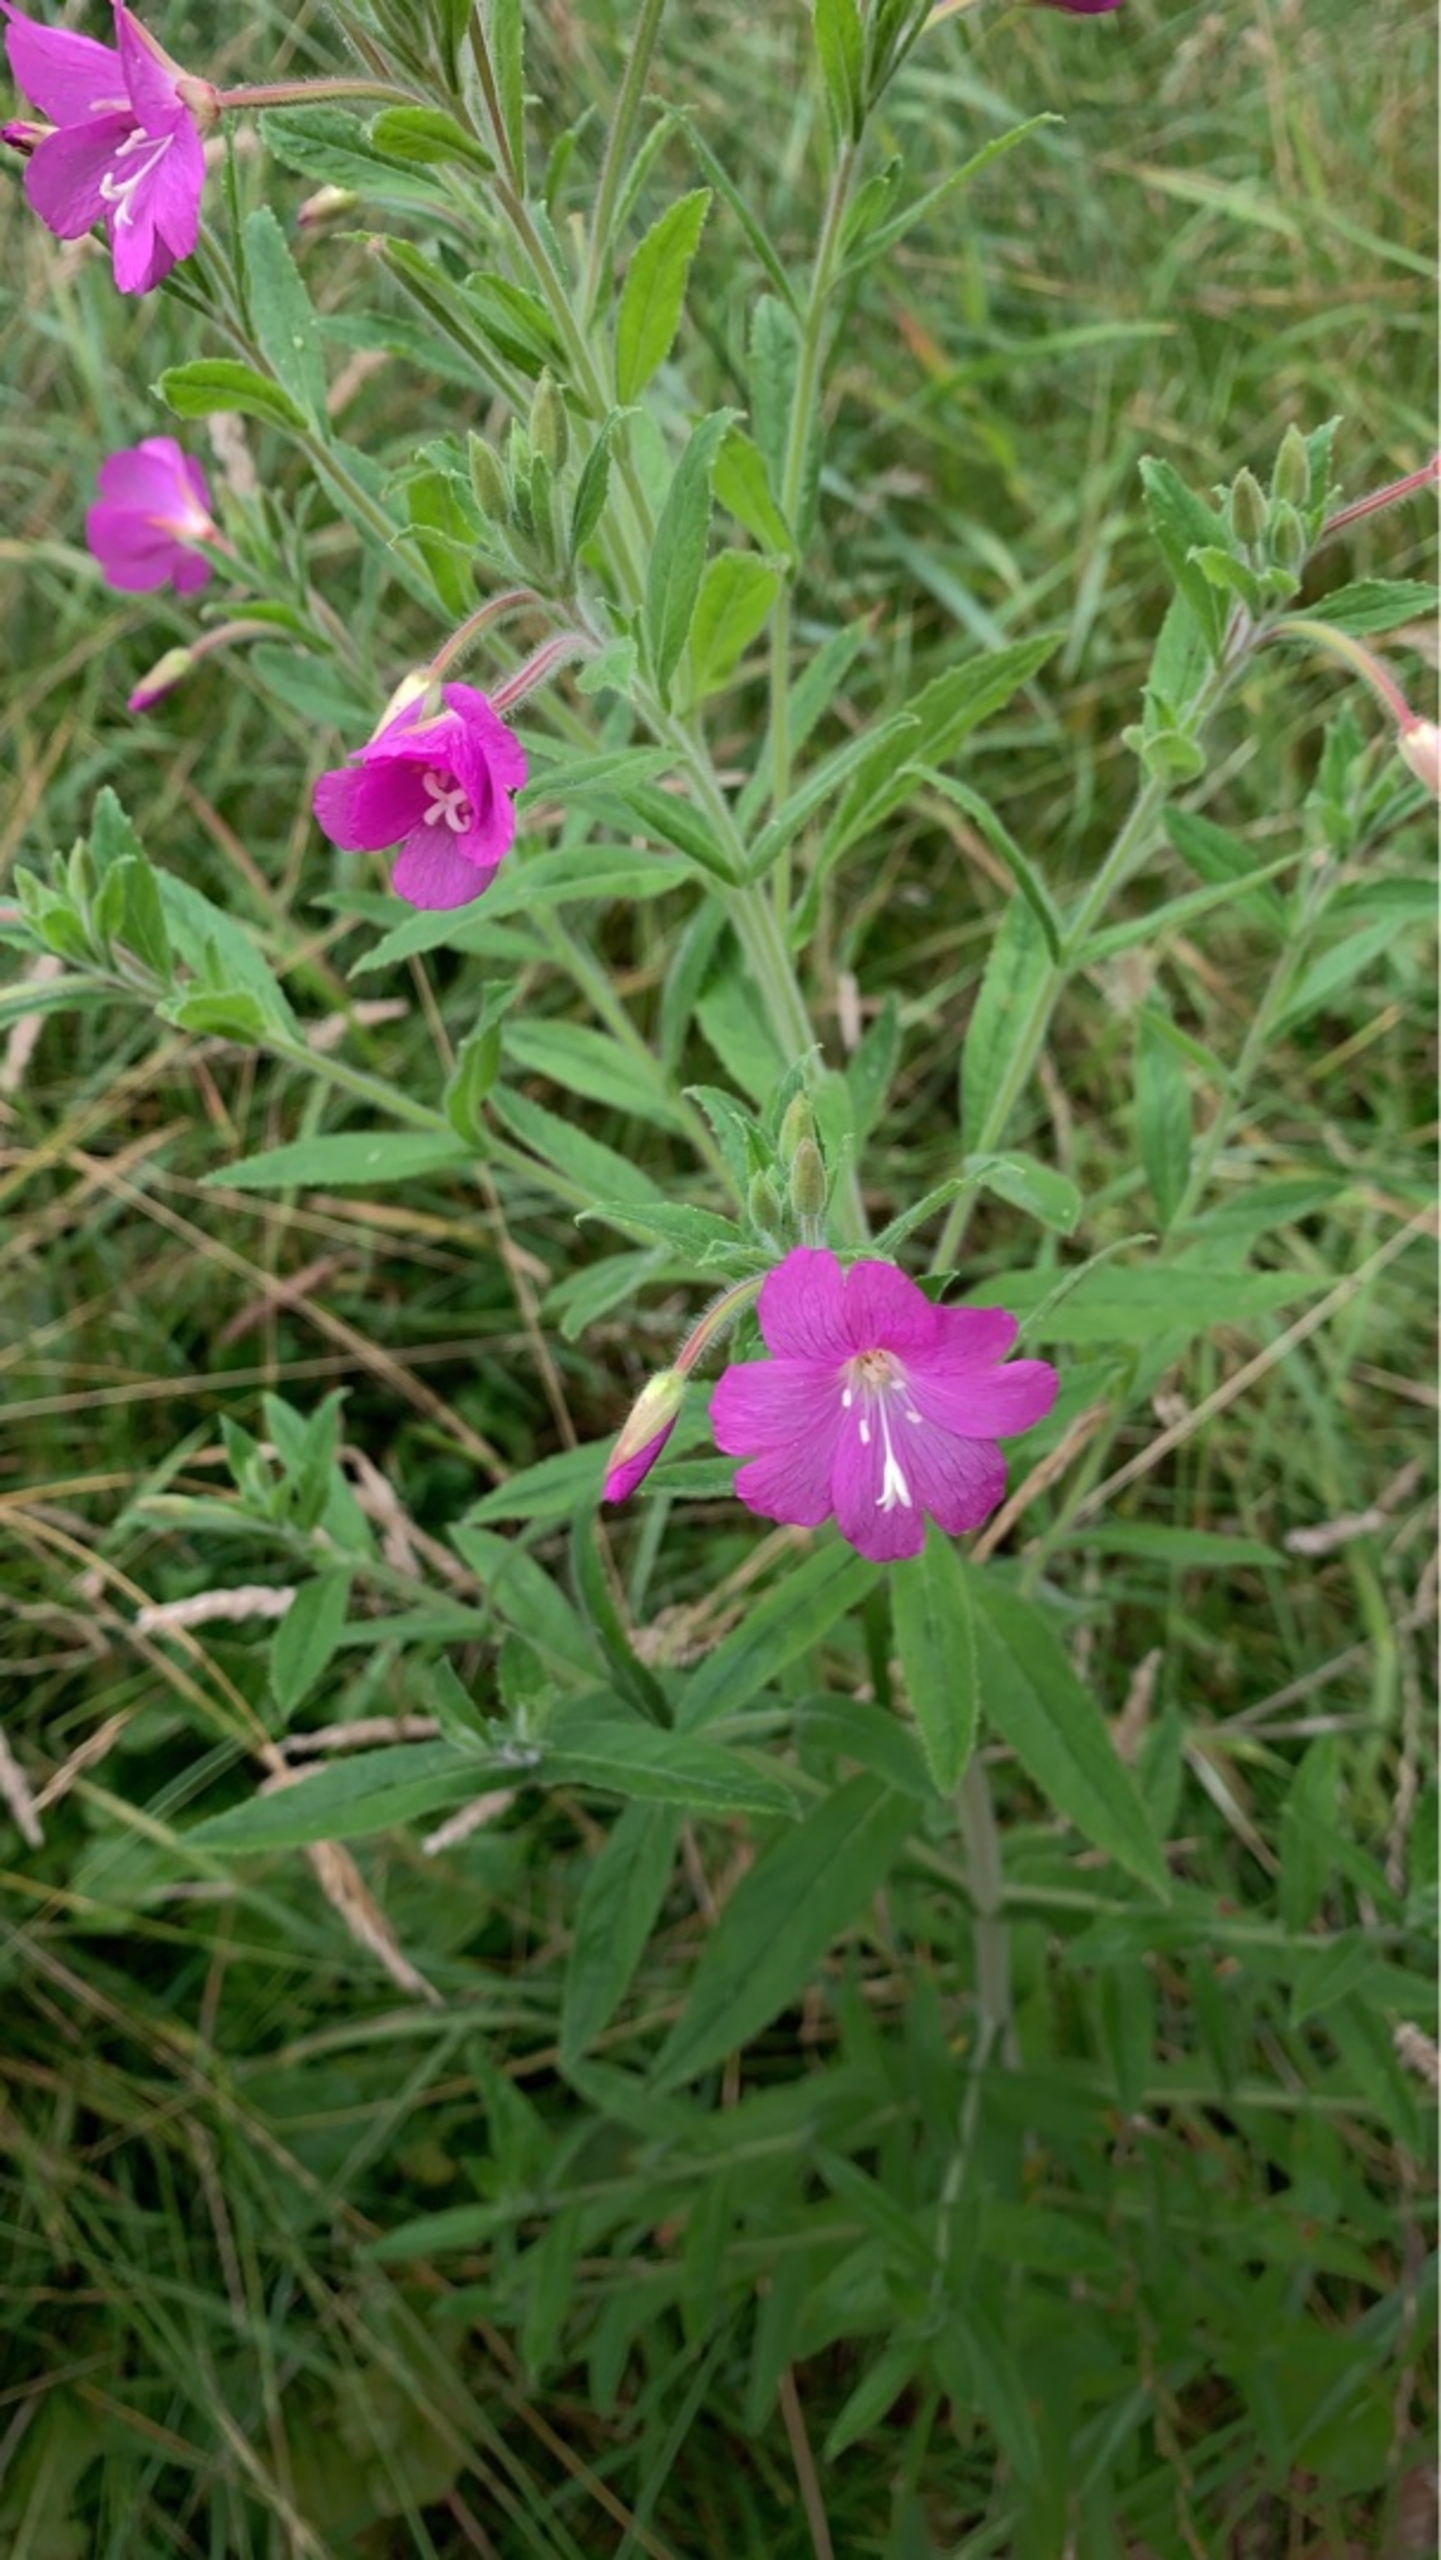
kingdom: Plantae
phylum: Tracheophyta
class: Magnoliopsida
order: Myrtales
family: Onagraceae
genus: Epilobium
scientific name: Epilobium hirsutum
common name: Lådden dueurt
